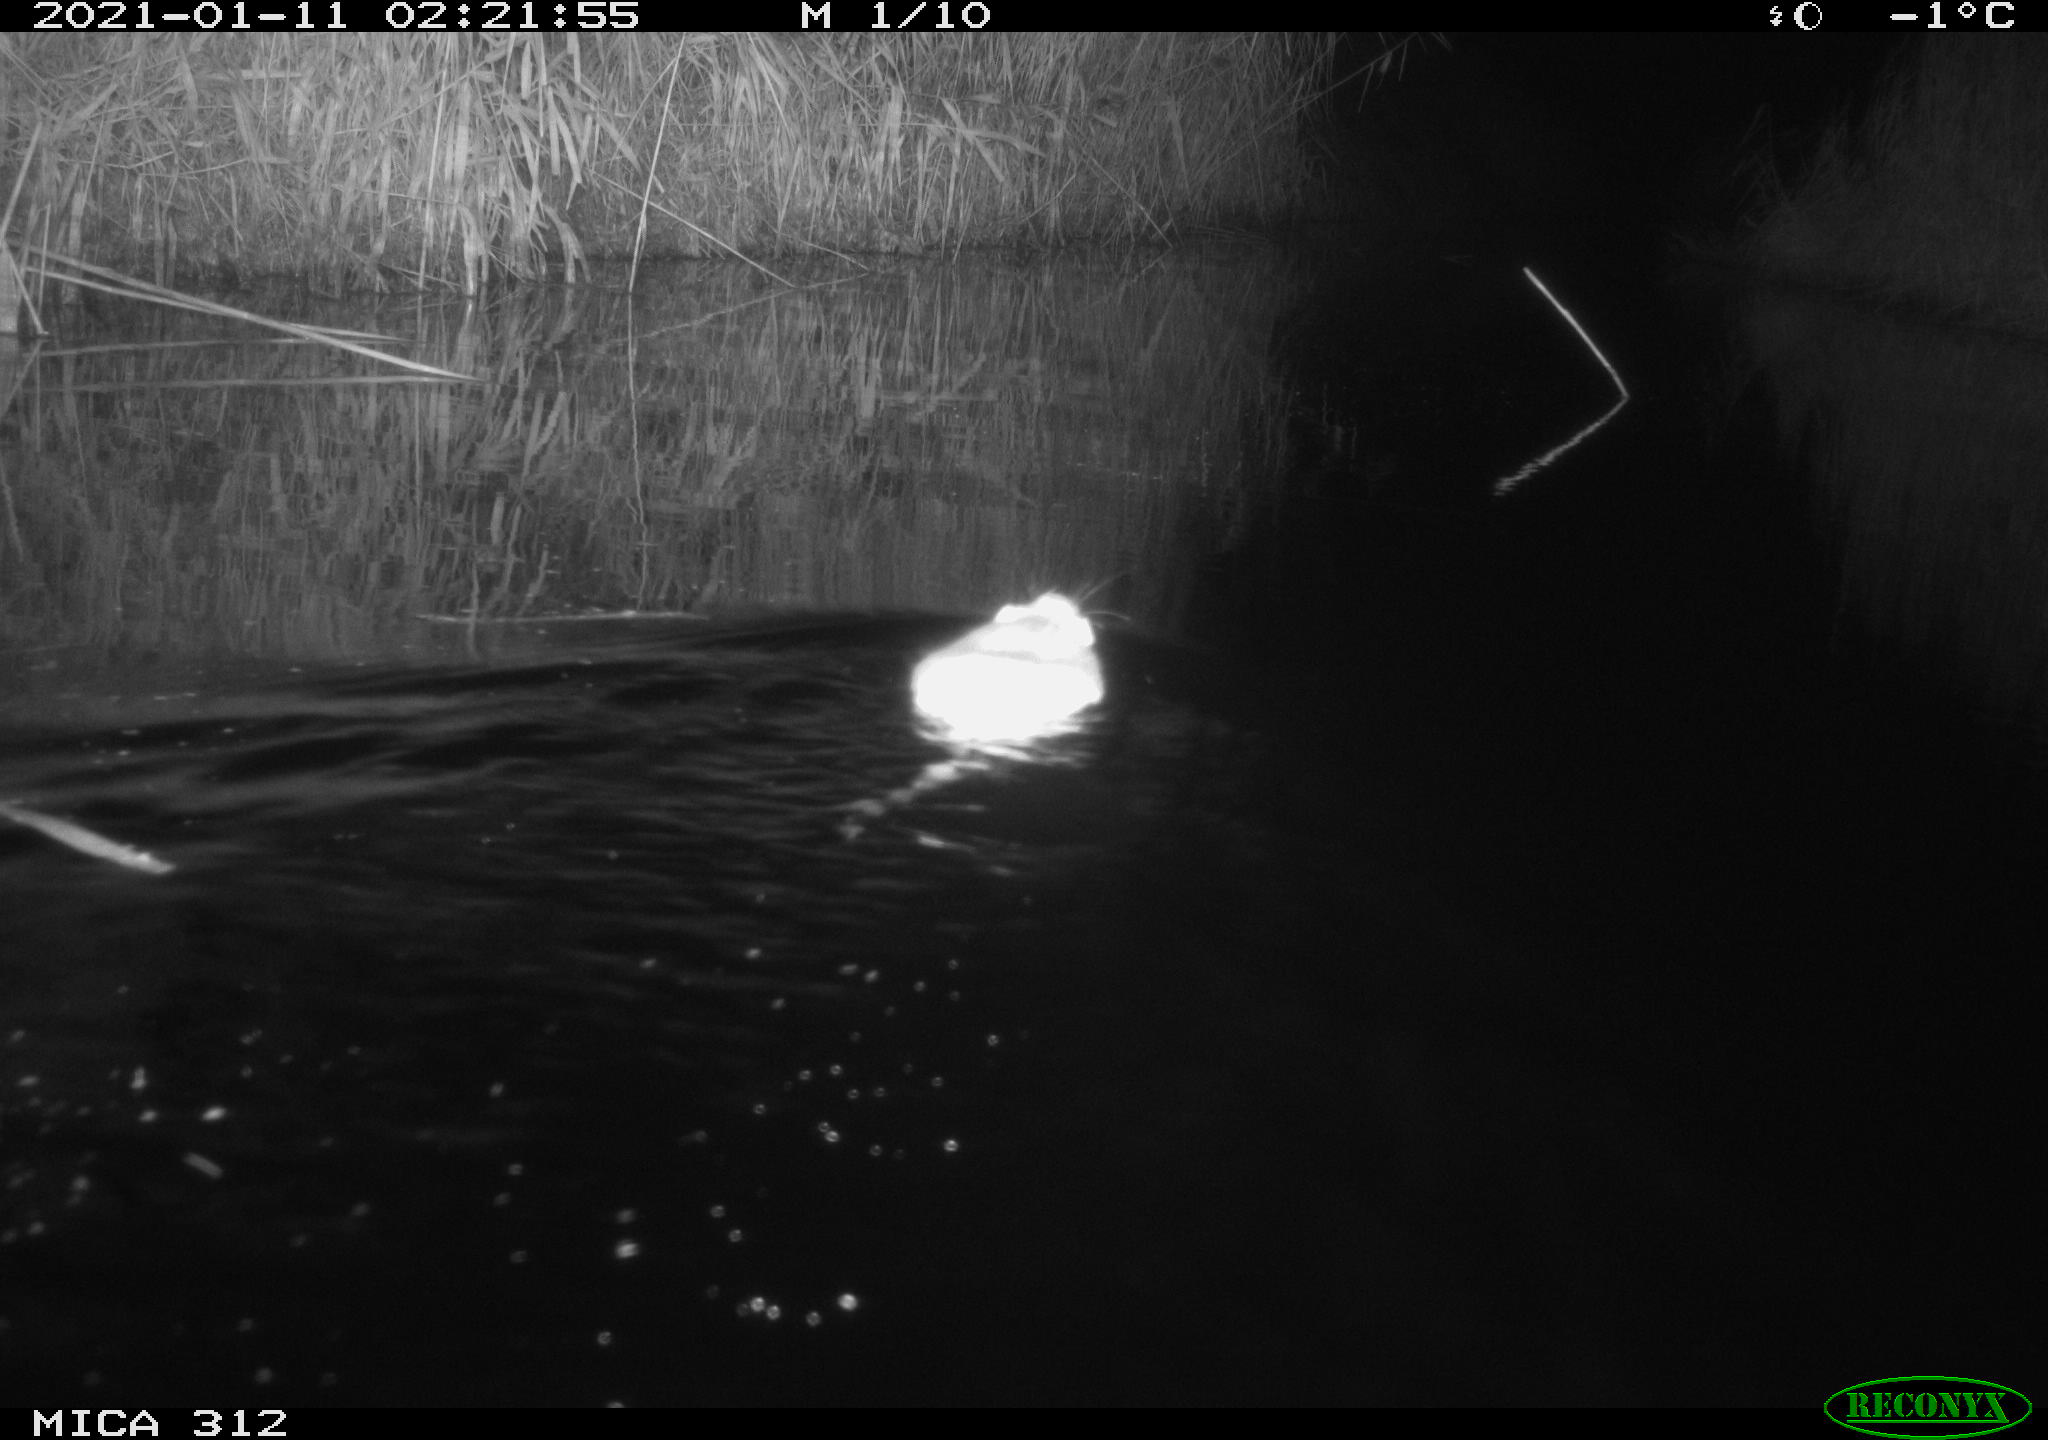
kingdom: Animalia
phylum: Chordata
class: Mammalia
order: Rodentia
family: Muridae
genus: Rattus
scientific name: Rattus norvegicus
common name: Brown rat
